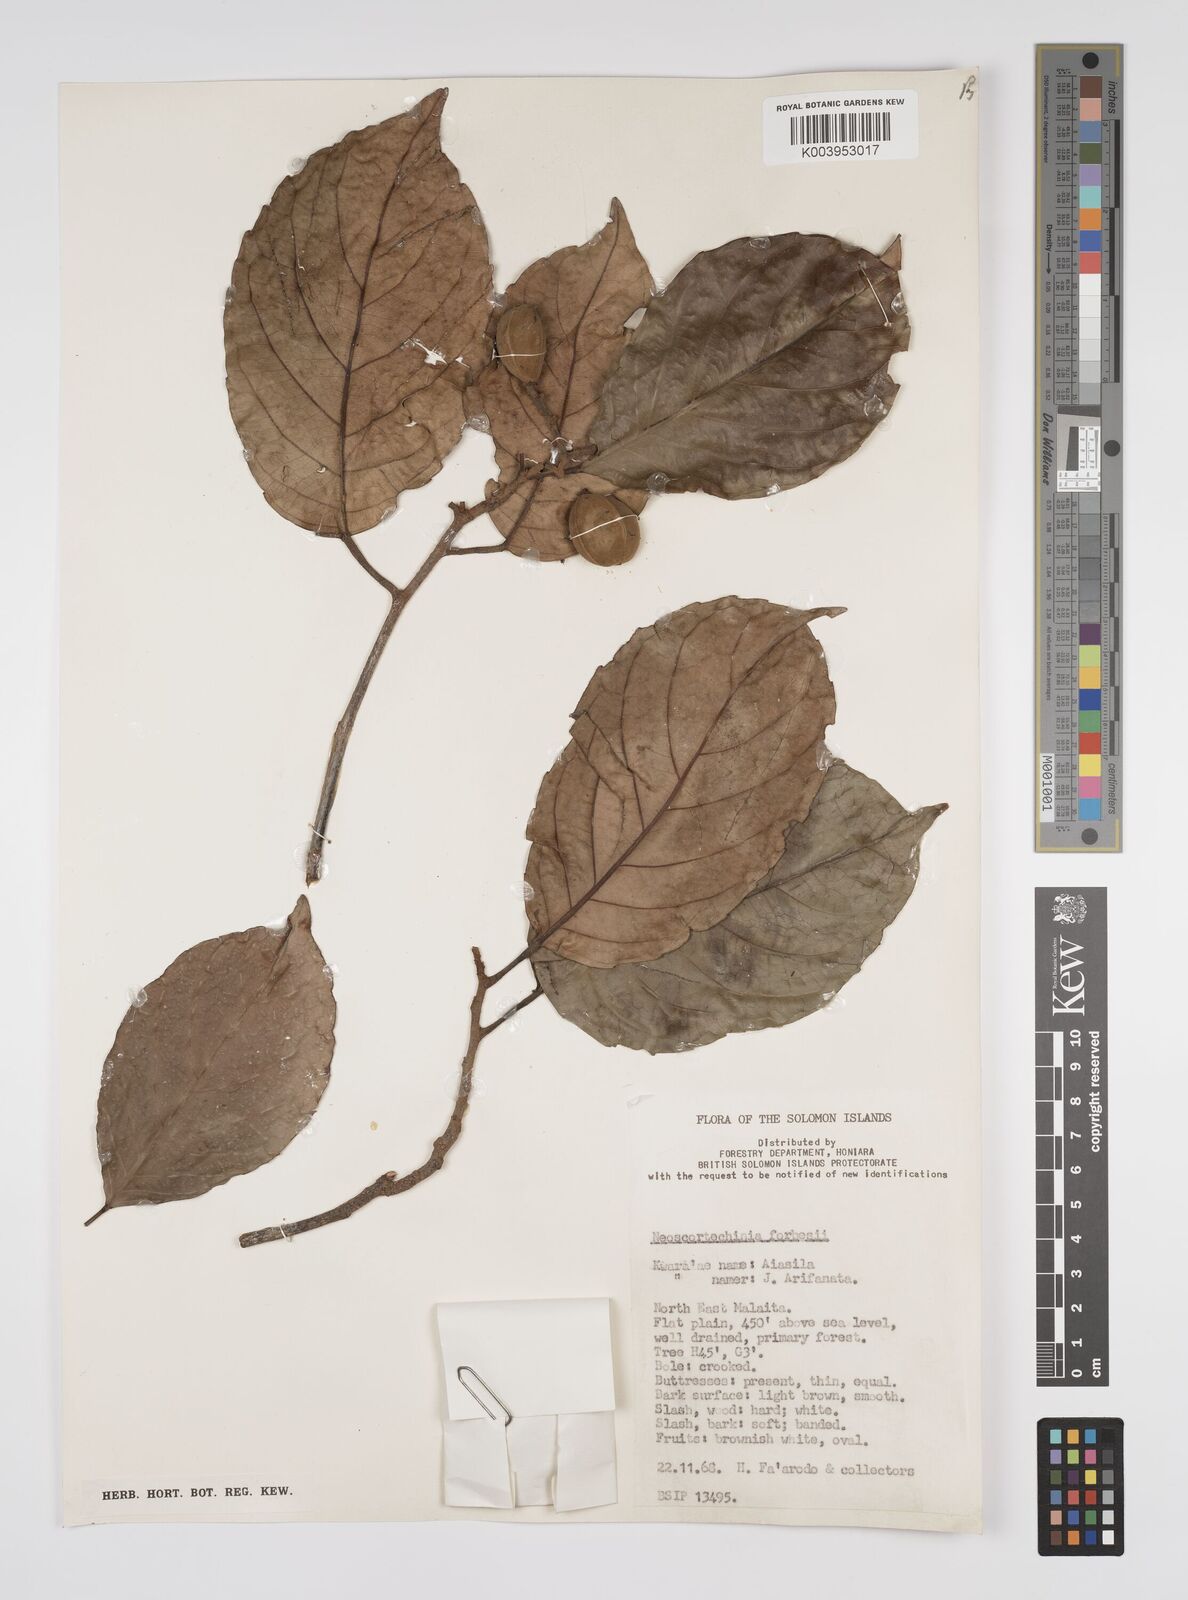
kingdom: Plantae
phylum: Tracheophyta
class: Magnoliopsida
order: Malpighiales
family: Euphorbiaceae
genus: Neoscortechinia
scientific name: Neoscortechinia forbesii
